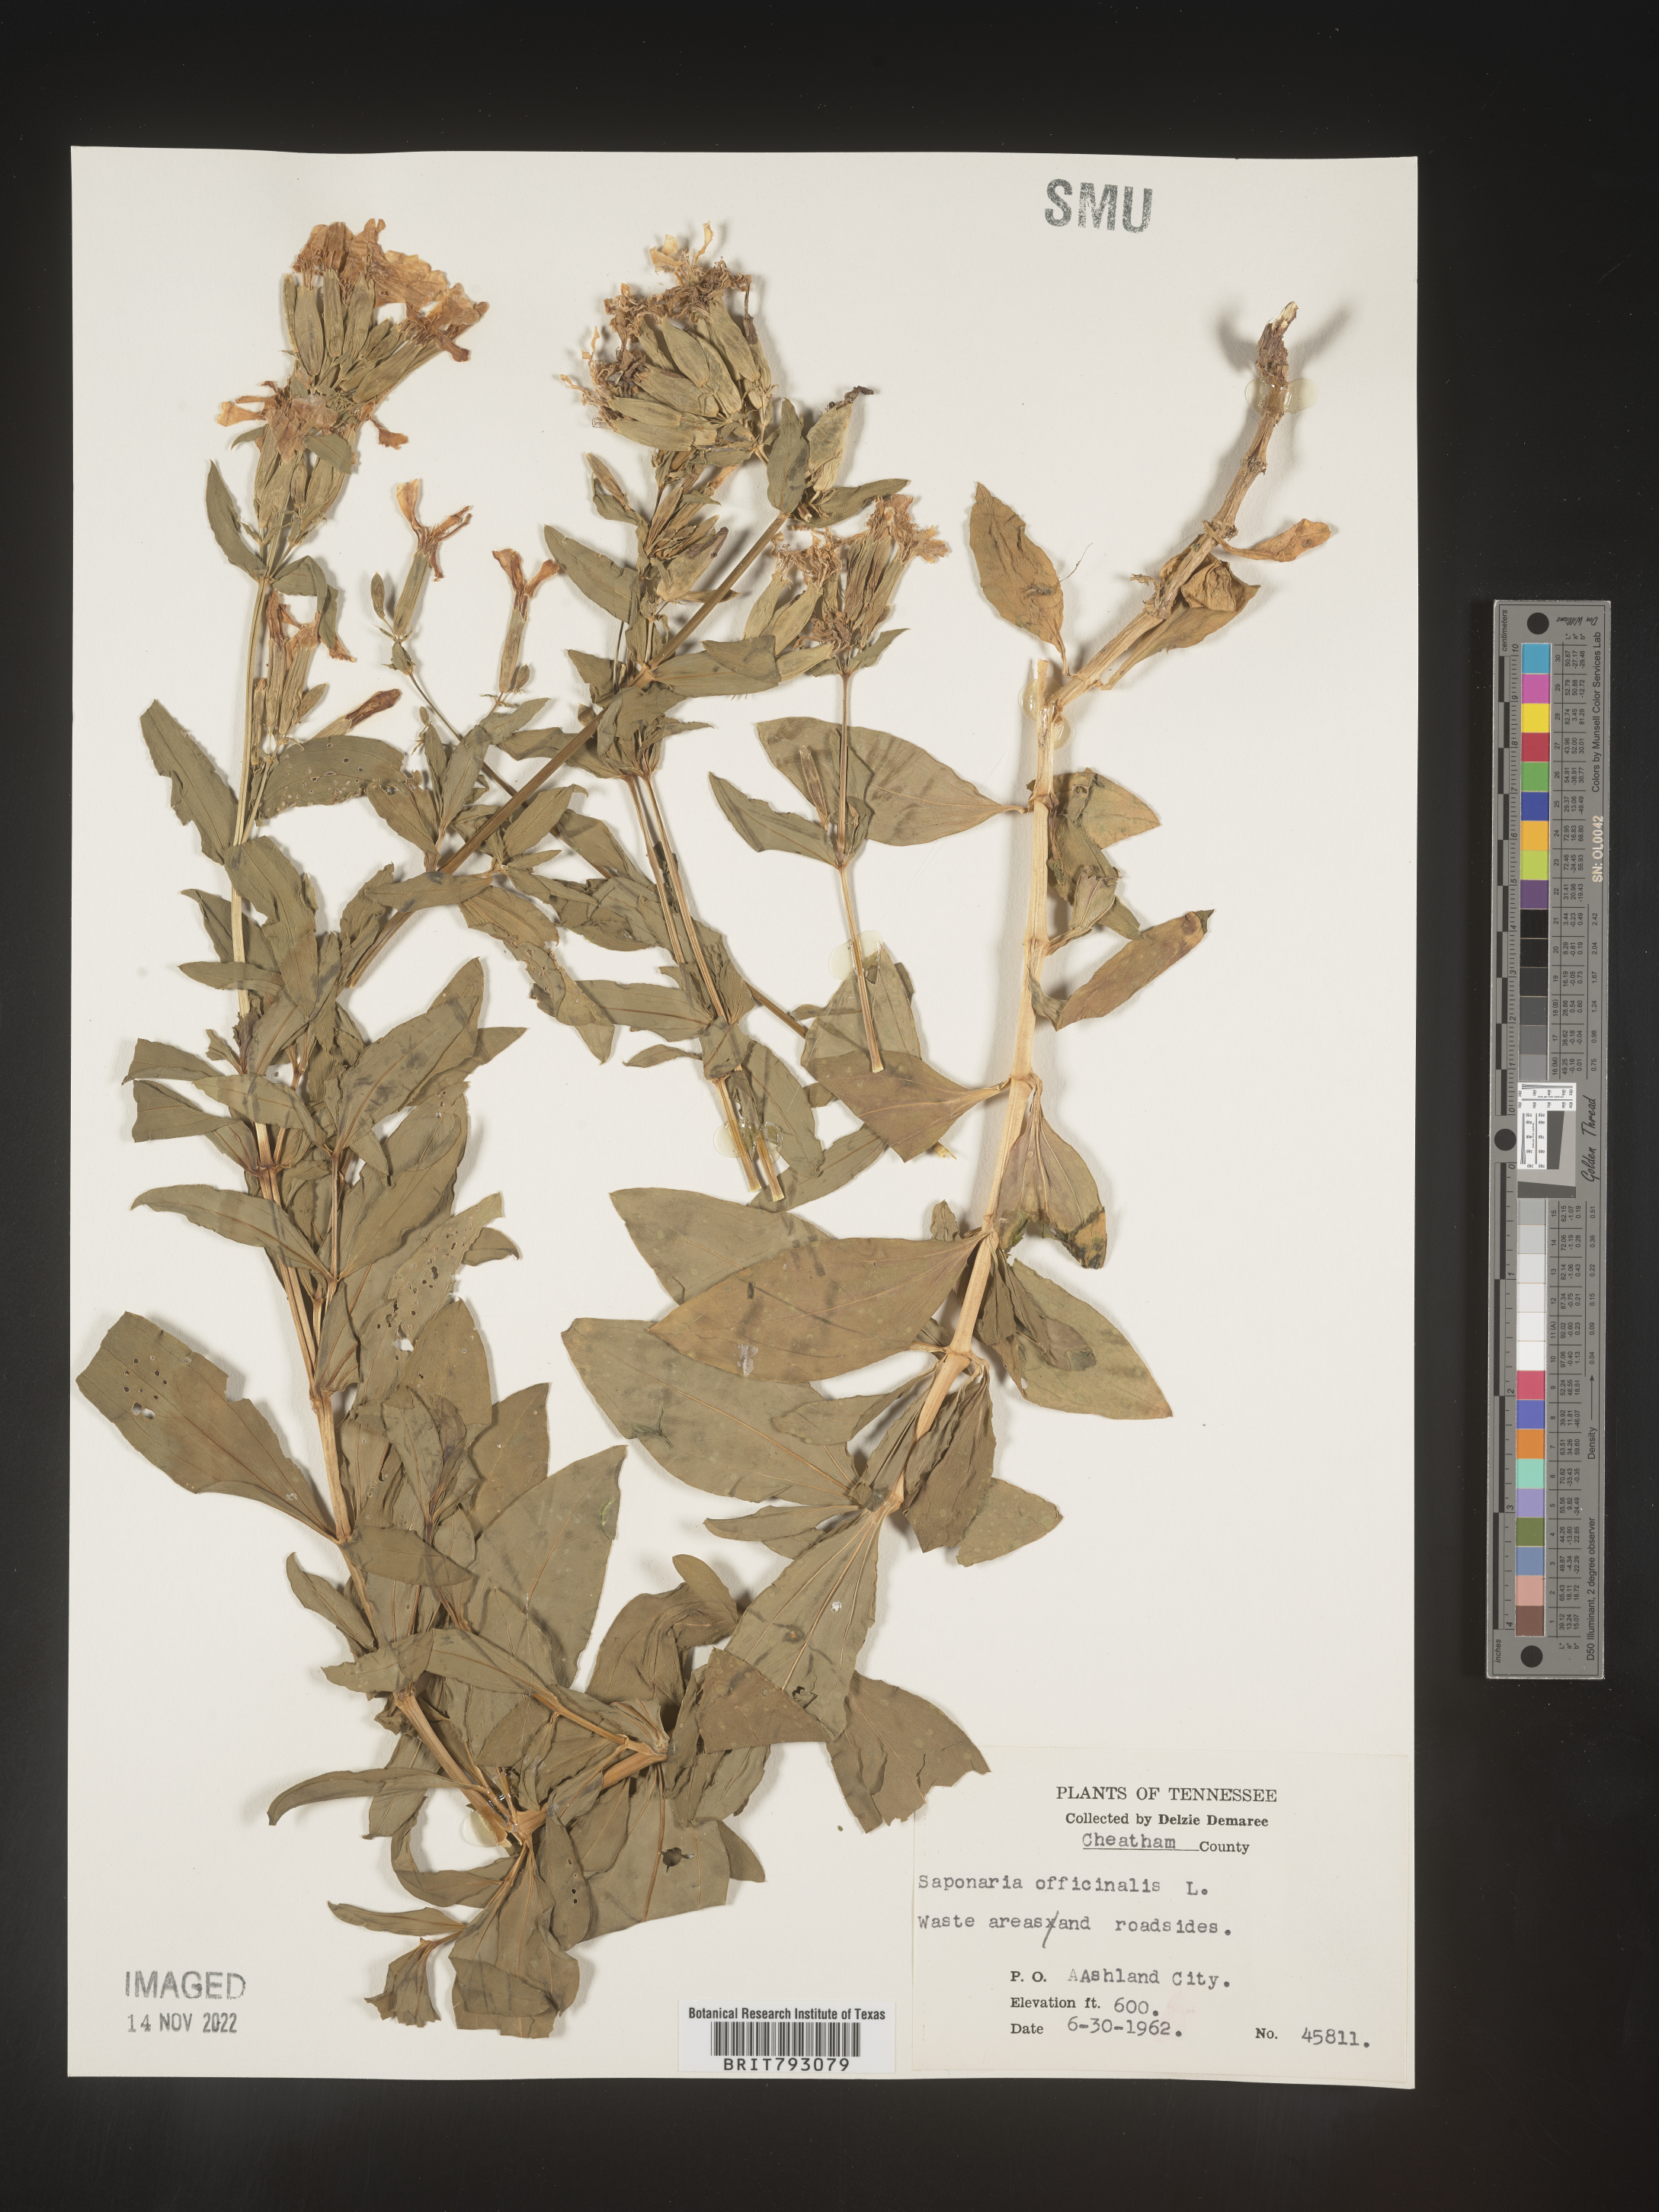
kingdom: Plantae
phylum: Tracheophyta
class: Magnoliopsida
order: Caryophyllales
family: Caryophyllaceae
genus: Saponaria
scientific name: Saponaria officinalis
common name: Soapwort
